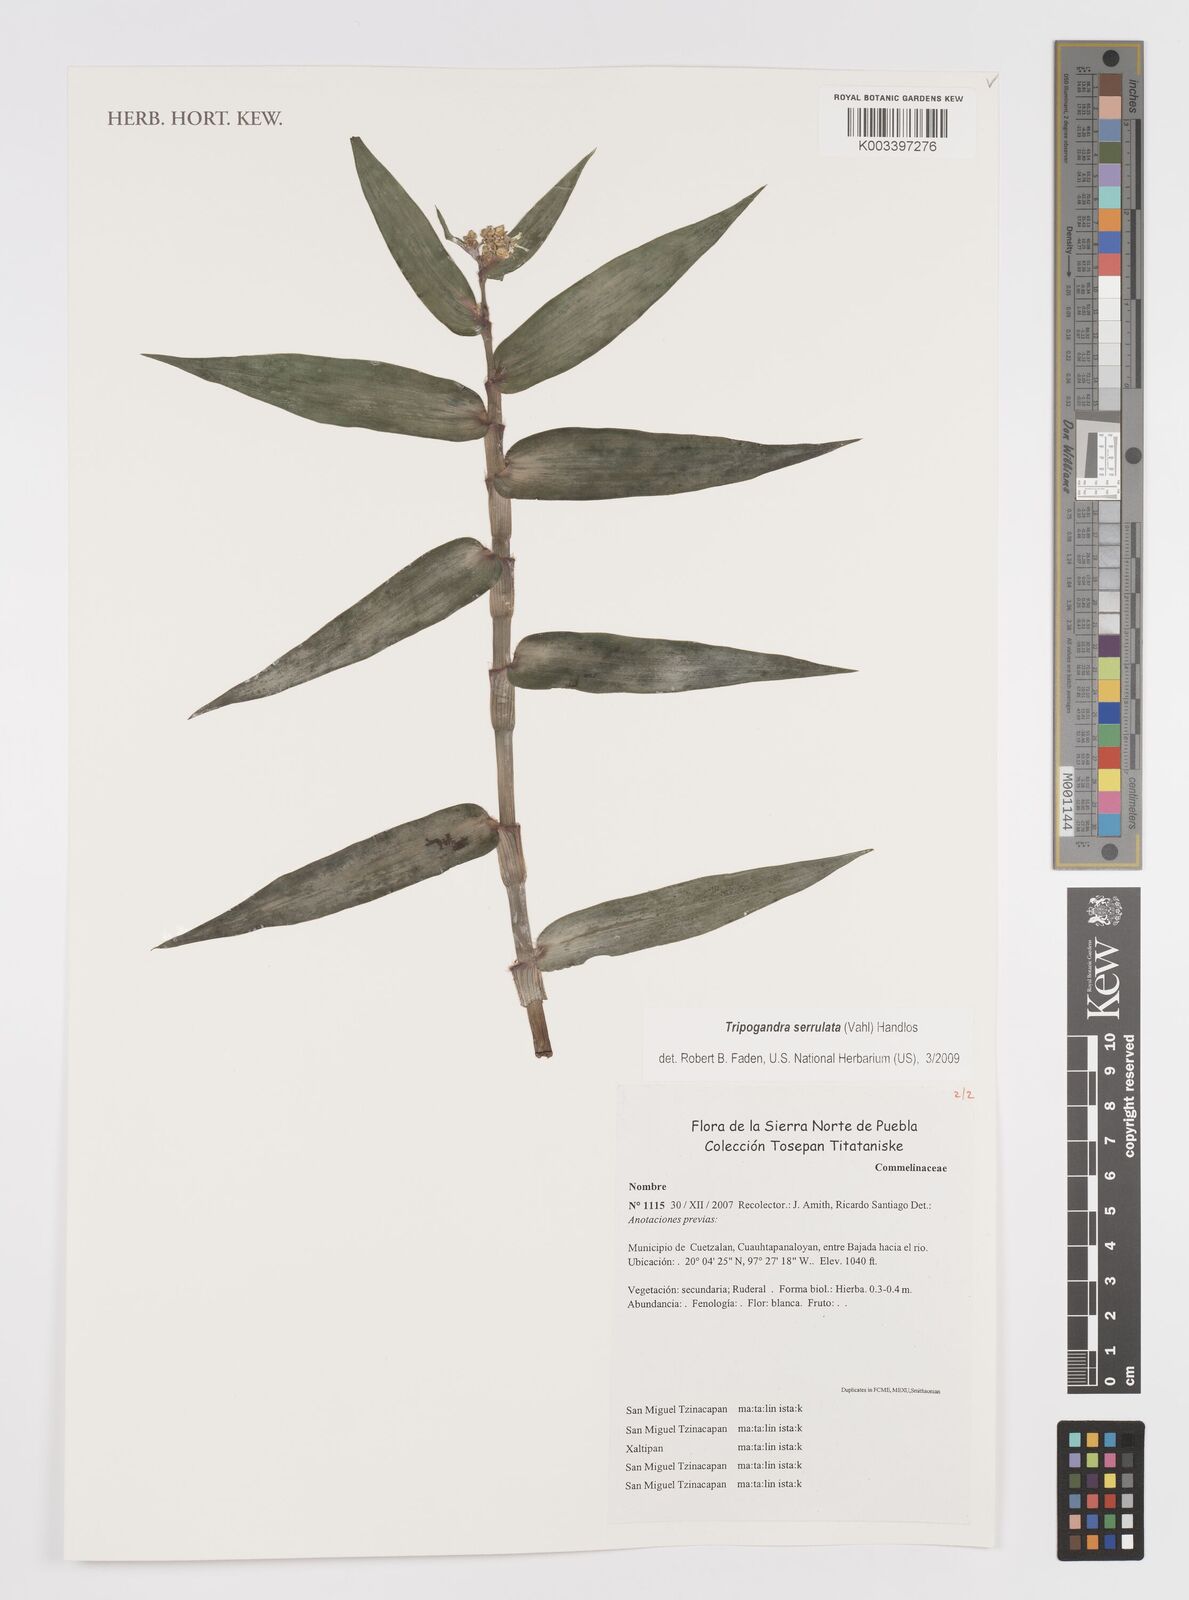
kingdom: Plantae
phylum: Tracheophyta
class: Liliopsida
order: Commelinales
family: Commelinaceae
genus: Callisia
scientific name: Callisia serrulata
